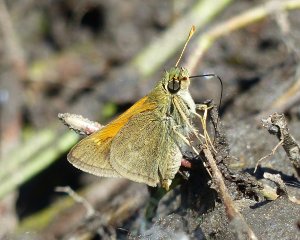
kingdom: Animalia
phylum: Arthropoda
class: Insecta
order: Lepidoptera
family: Hesperiidae
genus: Polites
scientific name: Polites themistocles
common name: Tawny-edged Skipper
